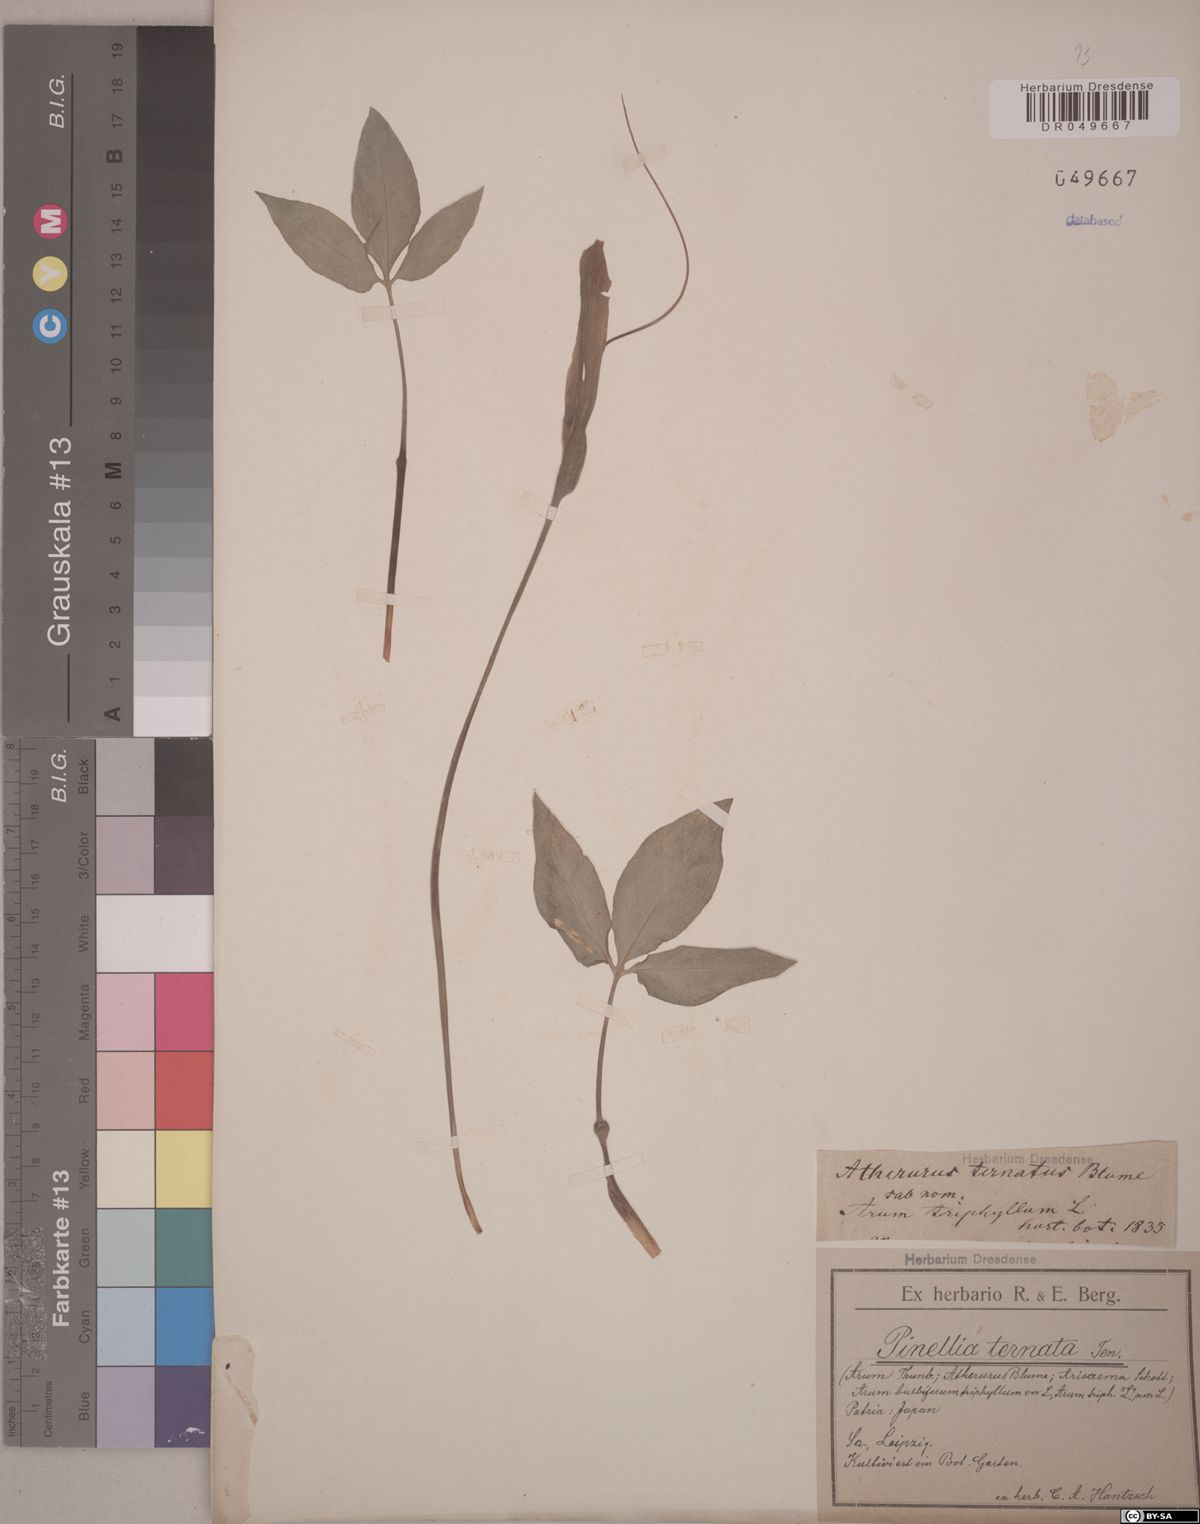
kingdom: Plantae
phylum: Tracheophyta
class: Liliopsida
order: Alismatales
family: Araceae
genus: Pinellia
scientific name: Pinellia ternata
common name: Pinellia
